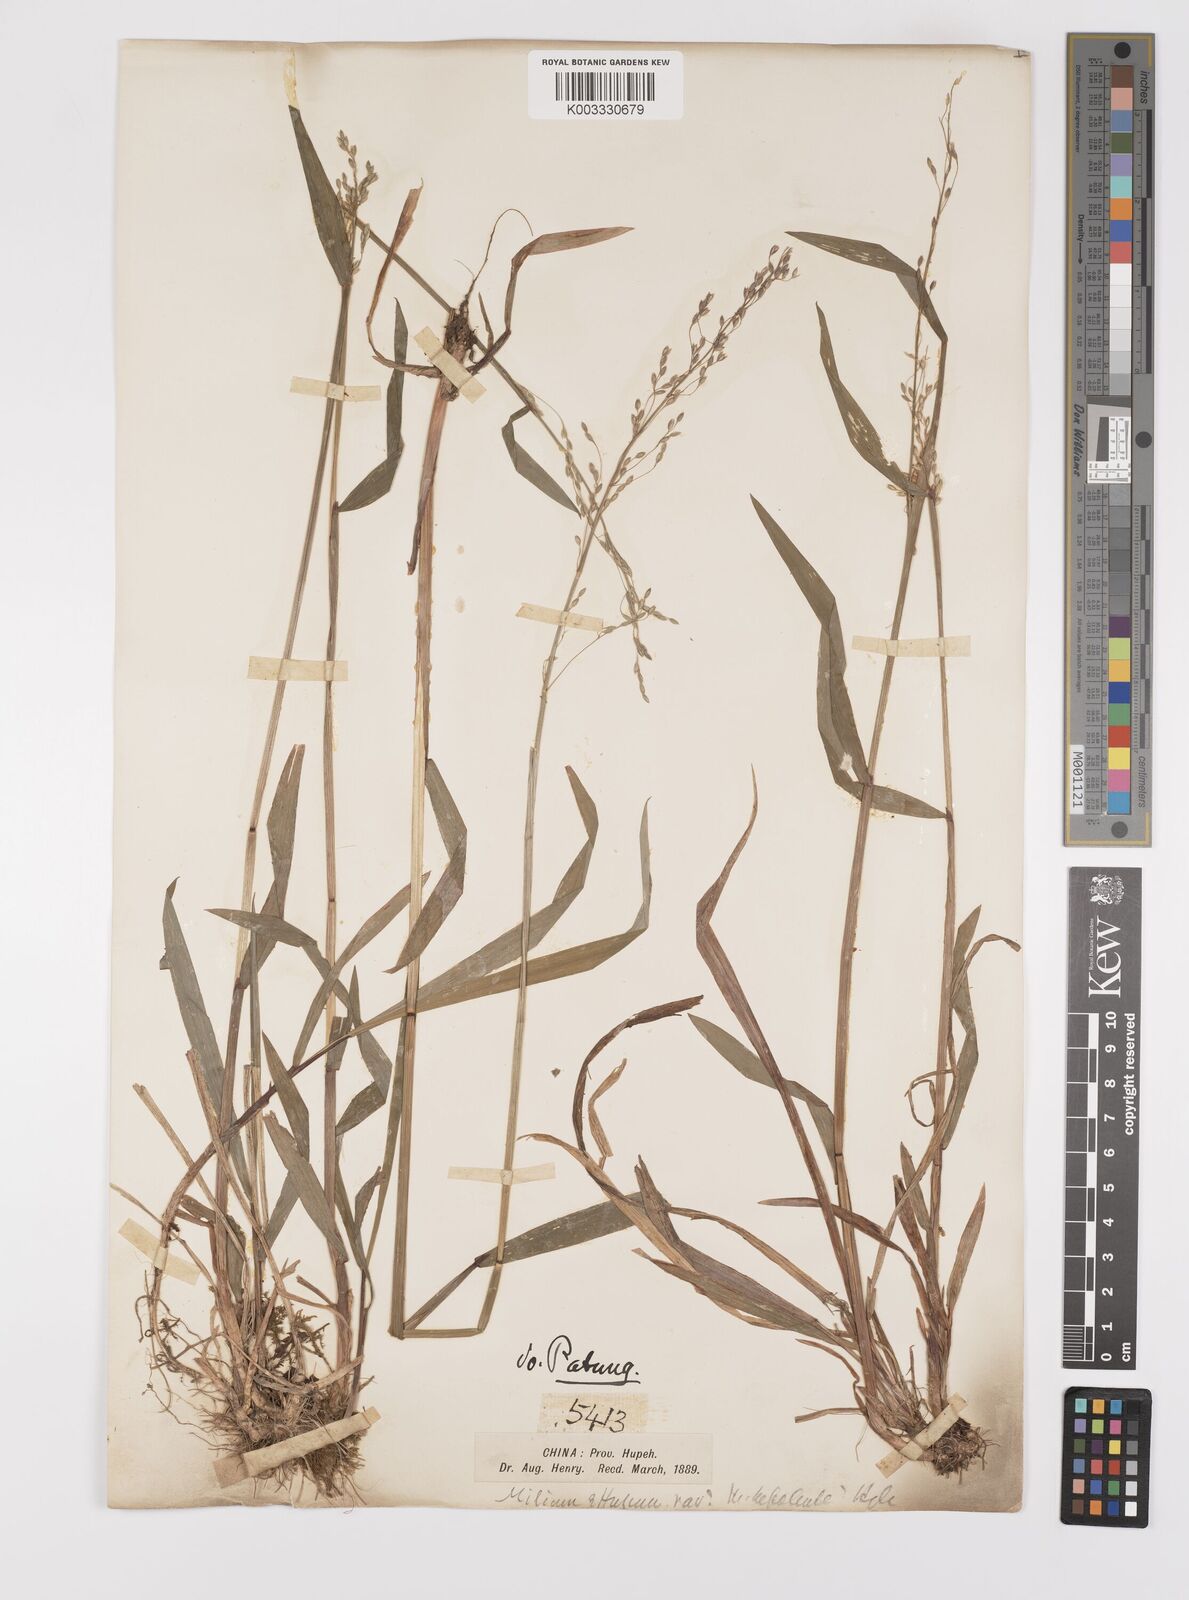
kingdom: Plantae
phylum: Tracheophyta
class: Liliopsida
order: Poales
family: Poaceae
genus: Milium
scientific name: Milium effusum
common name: Wood millet
